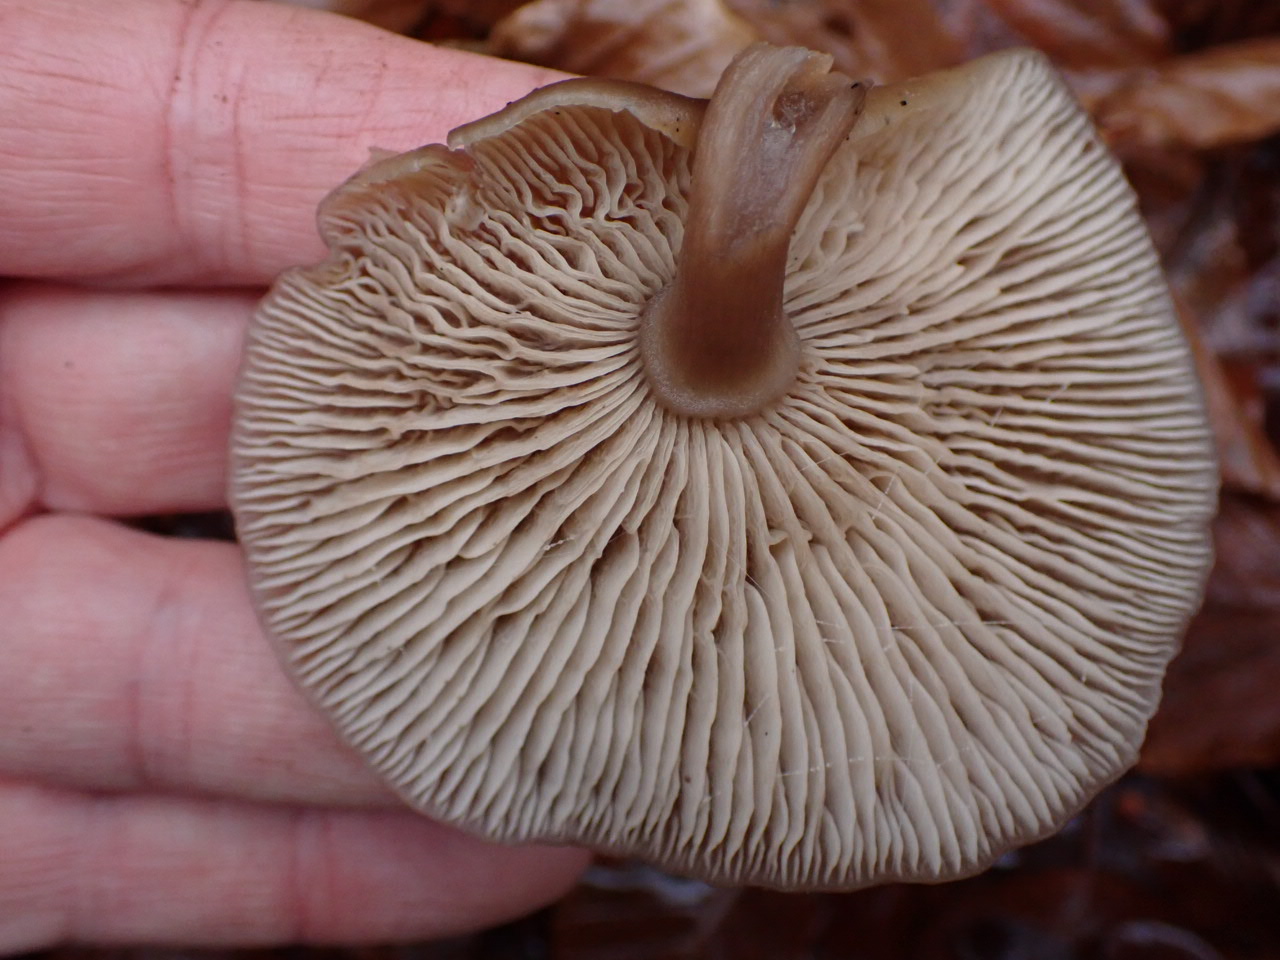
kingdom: Fungi
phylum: Basidiomycota
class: Agaricomycetes
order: Agaricales
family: Pseudoclitocybaceae
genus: Pseudoclitocybe
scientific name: Pseudoclitocybe cyathiformis
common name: almindelig bægertragthat
